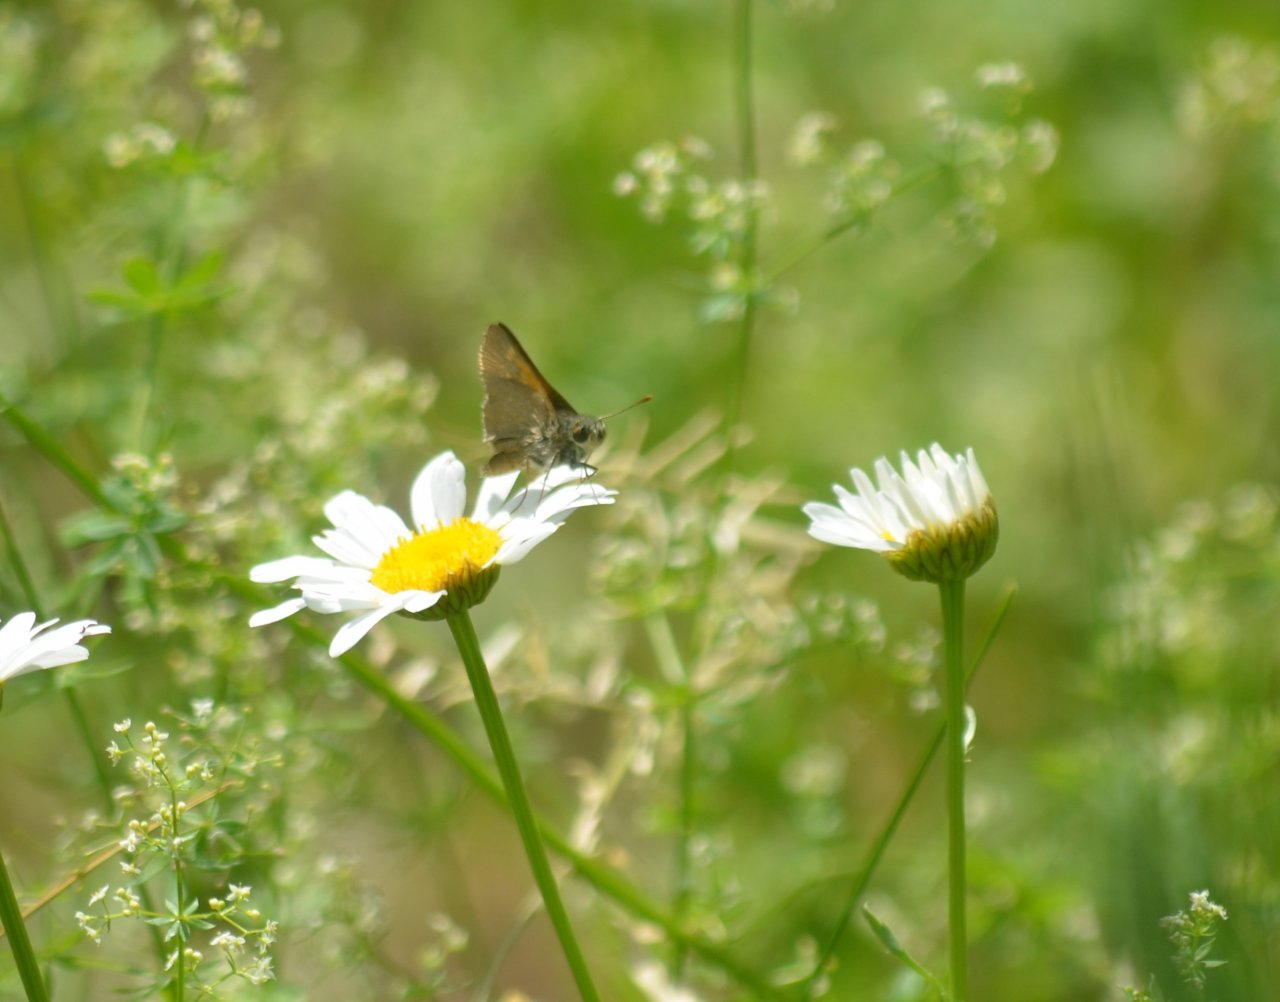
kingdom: Animalia
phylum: Arthropoda
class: Insecta
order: Lepidoptera
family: Hesperiidae
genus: Polites
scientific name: Polites themistocles
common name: Tawny-edged Skipper
